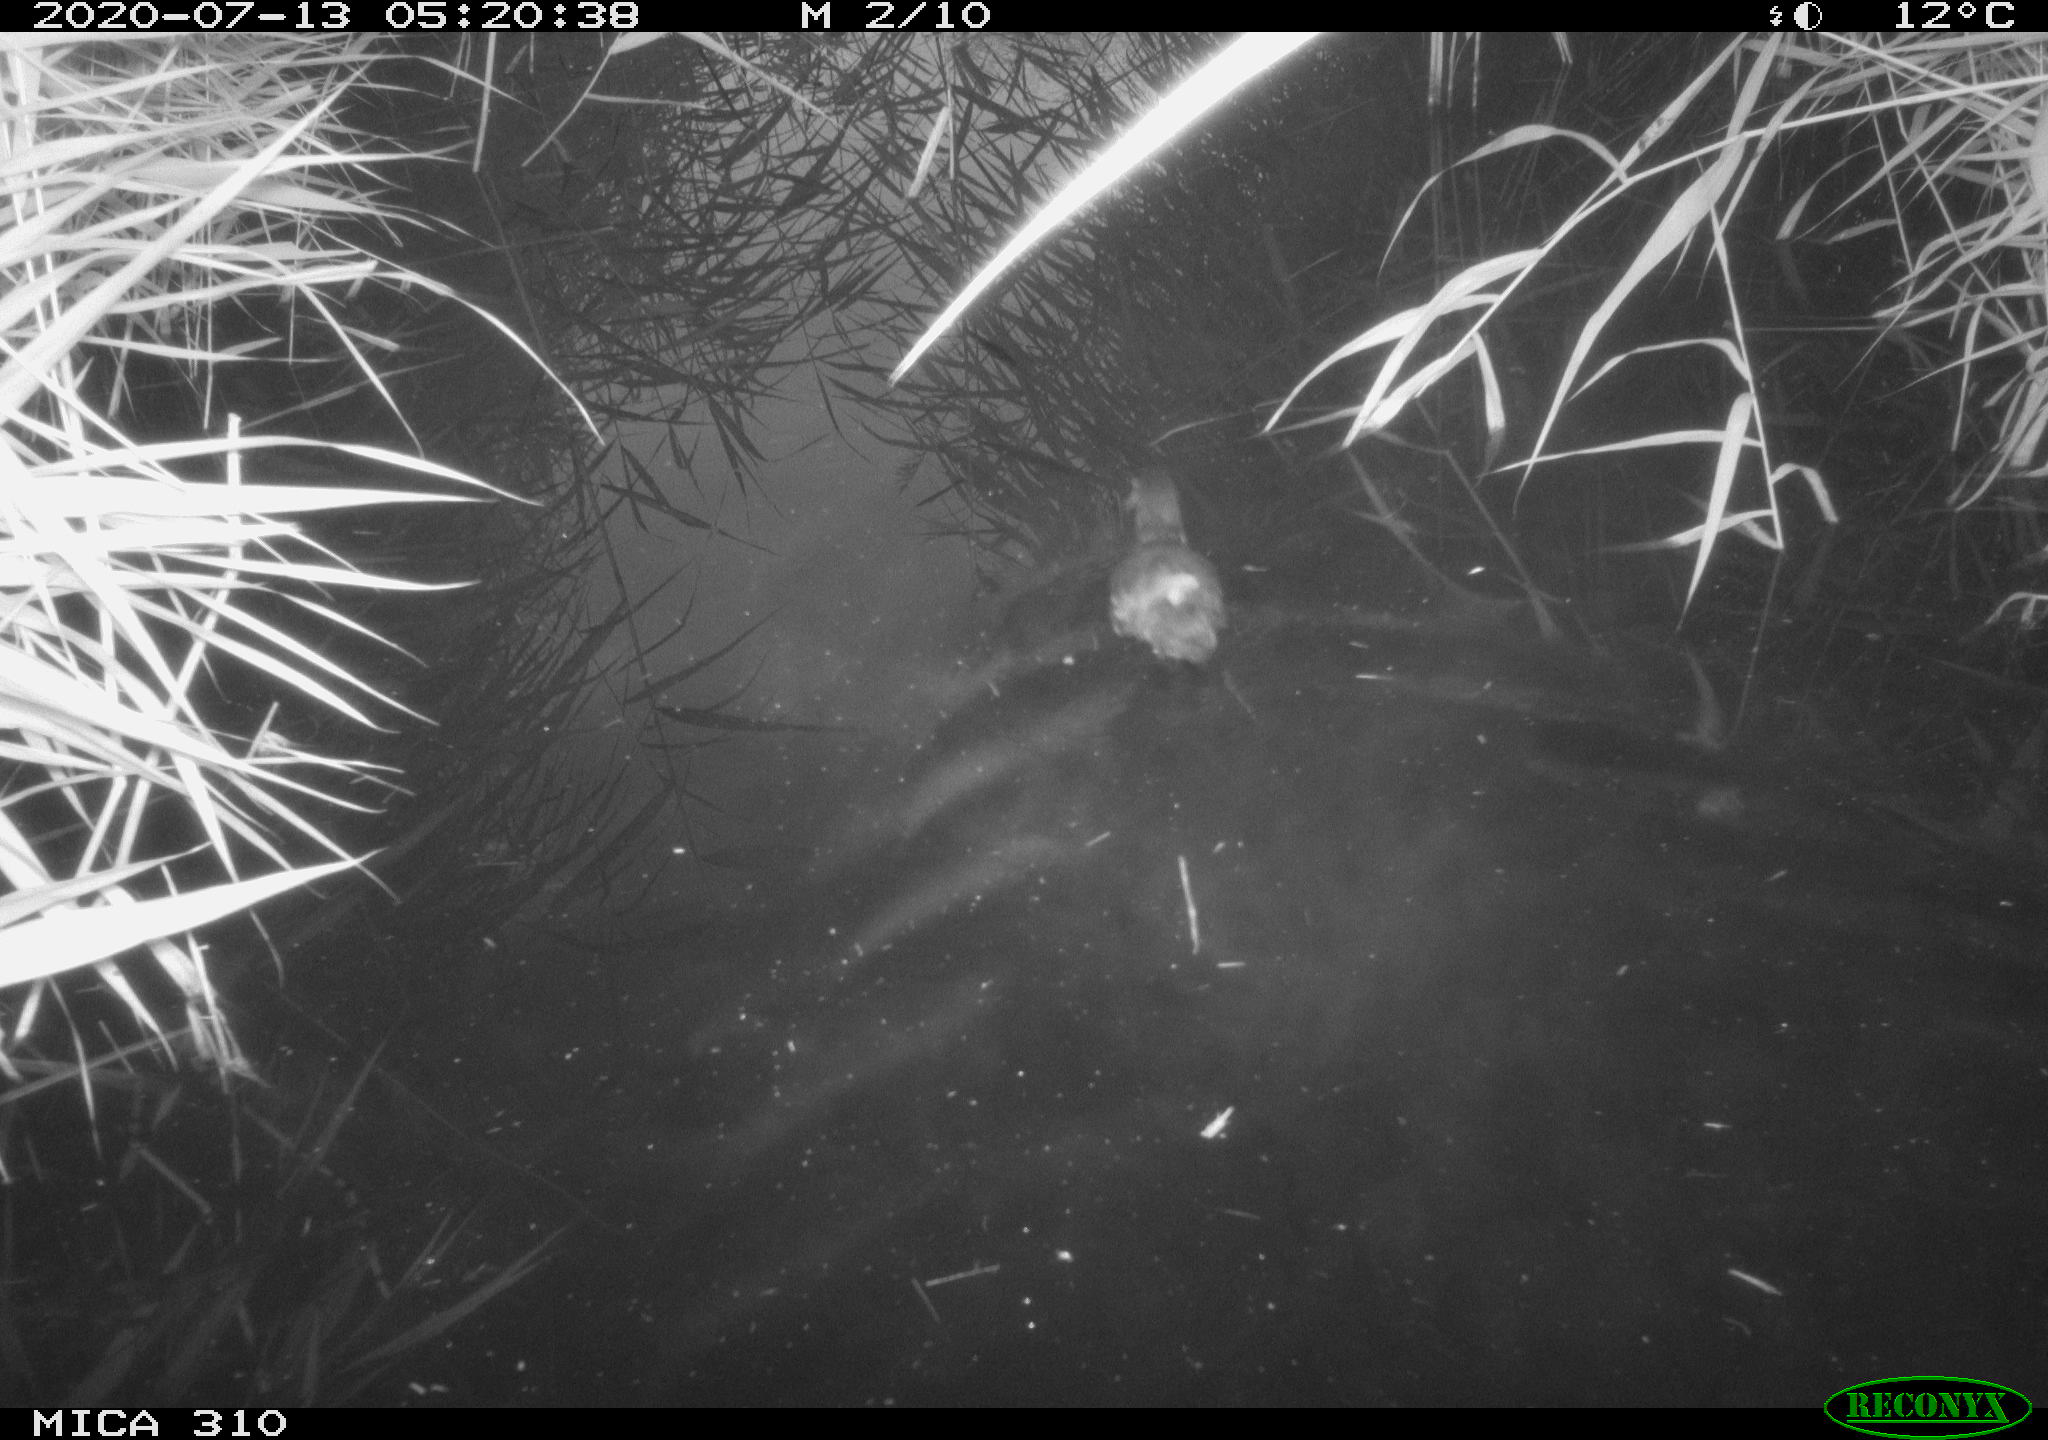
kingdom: Animalia
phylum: Chordata
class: Aves
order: Gruiformes
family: Rallidae
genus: Gallinula
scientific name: Gallinula chloropus
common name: Common moorhen
